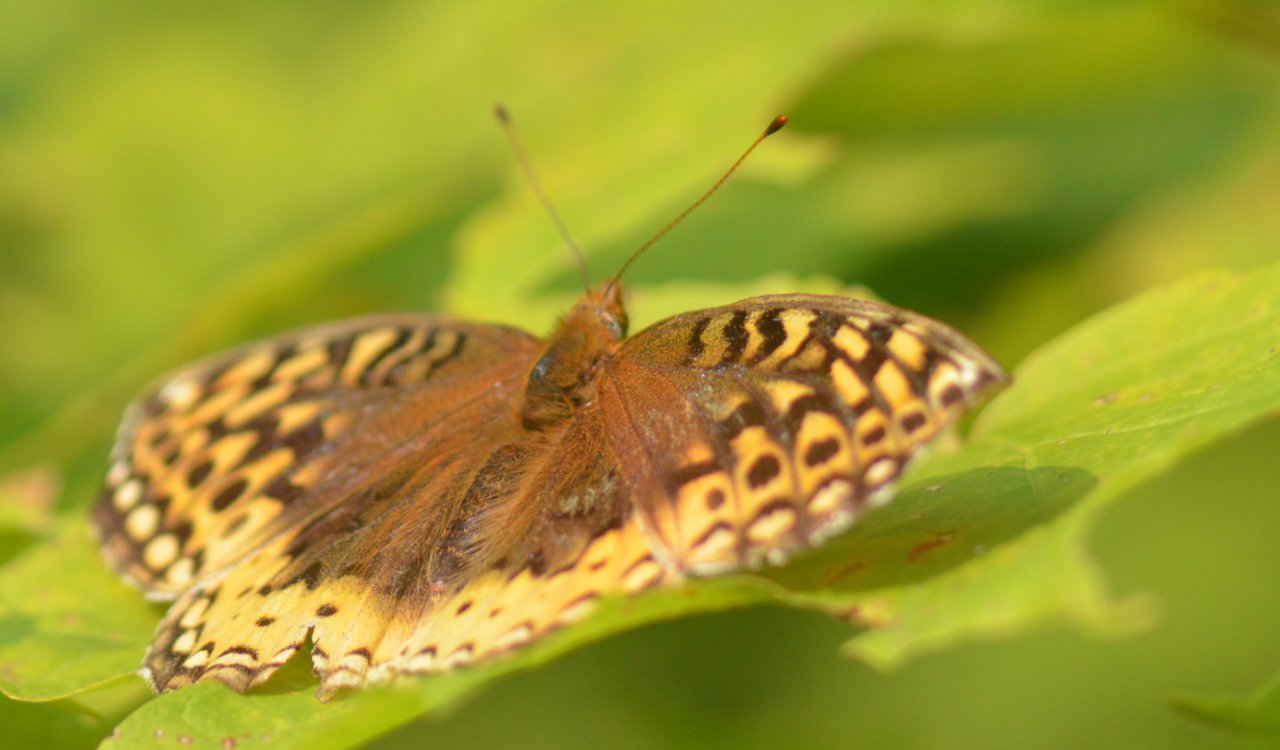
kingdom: Animalia
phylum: Arthropoda
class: Insecta
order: Lepidoptera
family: Nymphalidae
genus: Speyeria
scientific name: Speyeria cybele
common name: Great Spangled Fritillary
